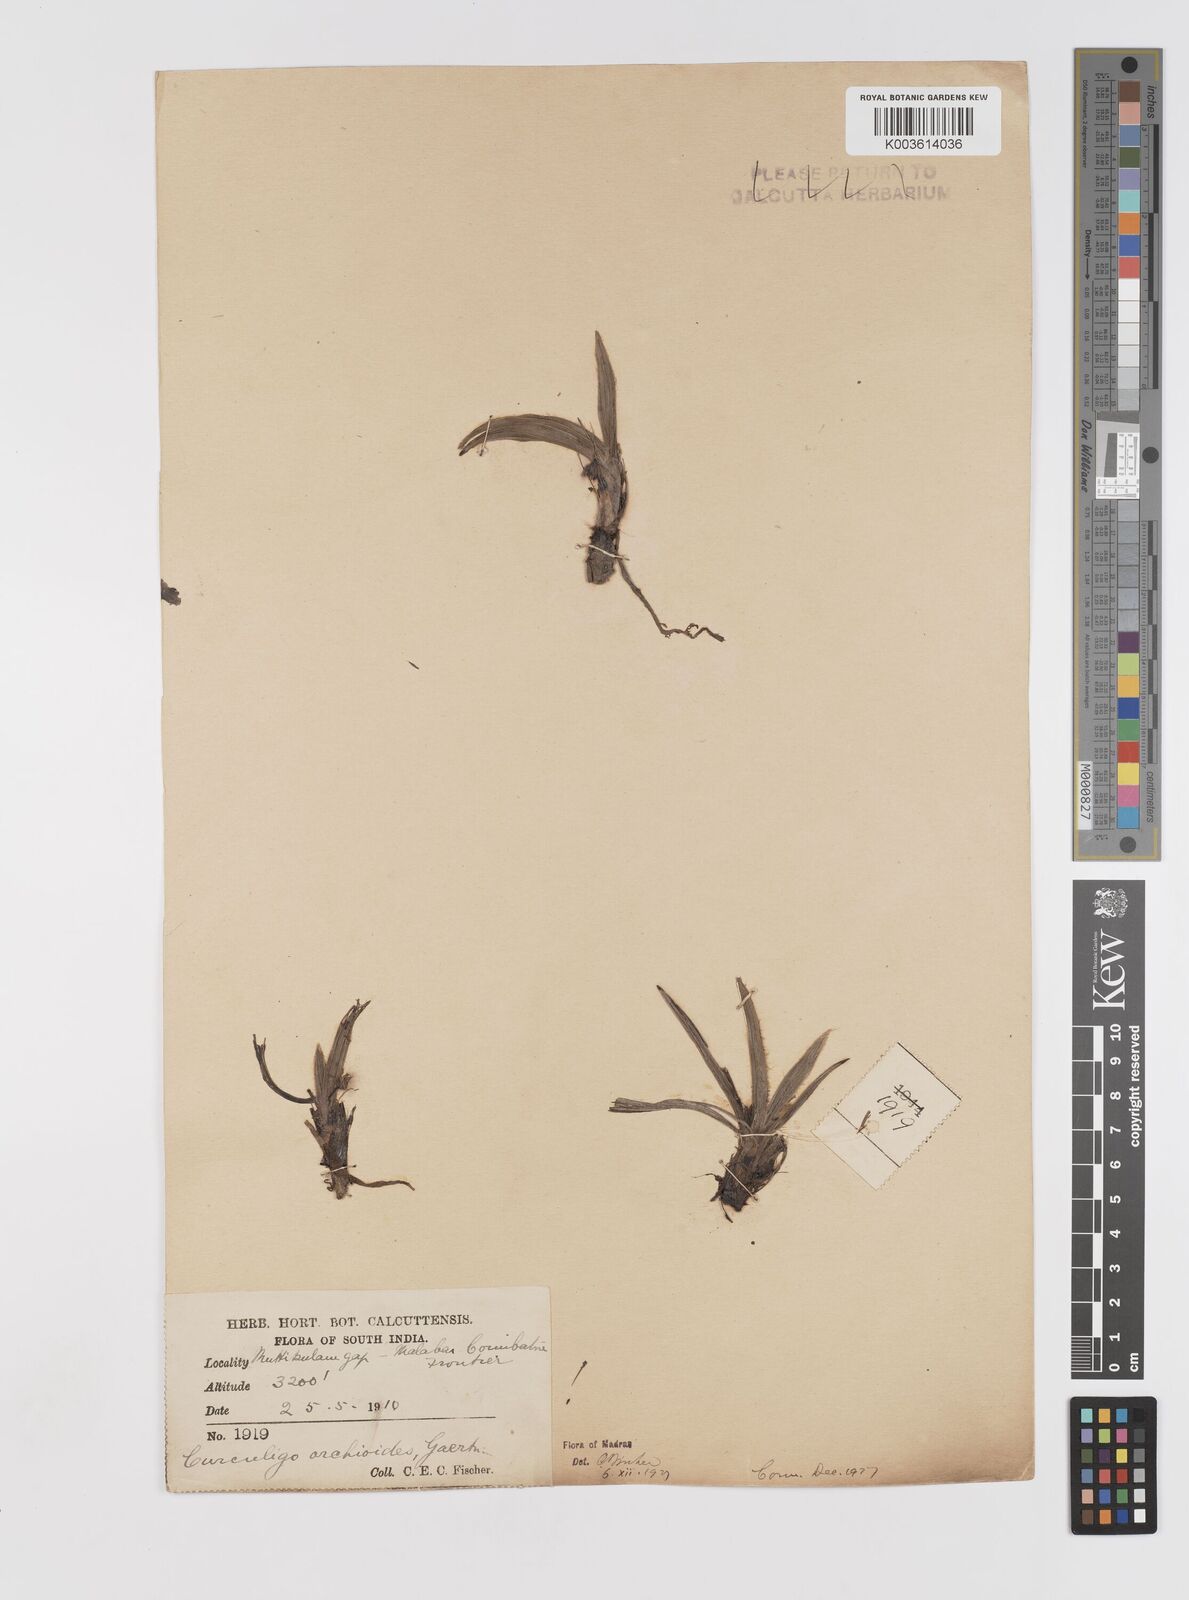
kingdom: Plantae
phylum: Tracheophyta
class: Liliopsida
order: Asparagales
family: Hypoxidaceae
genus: Curculigo
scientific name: Curculigo orchioides
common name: Golden eye-grass
